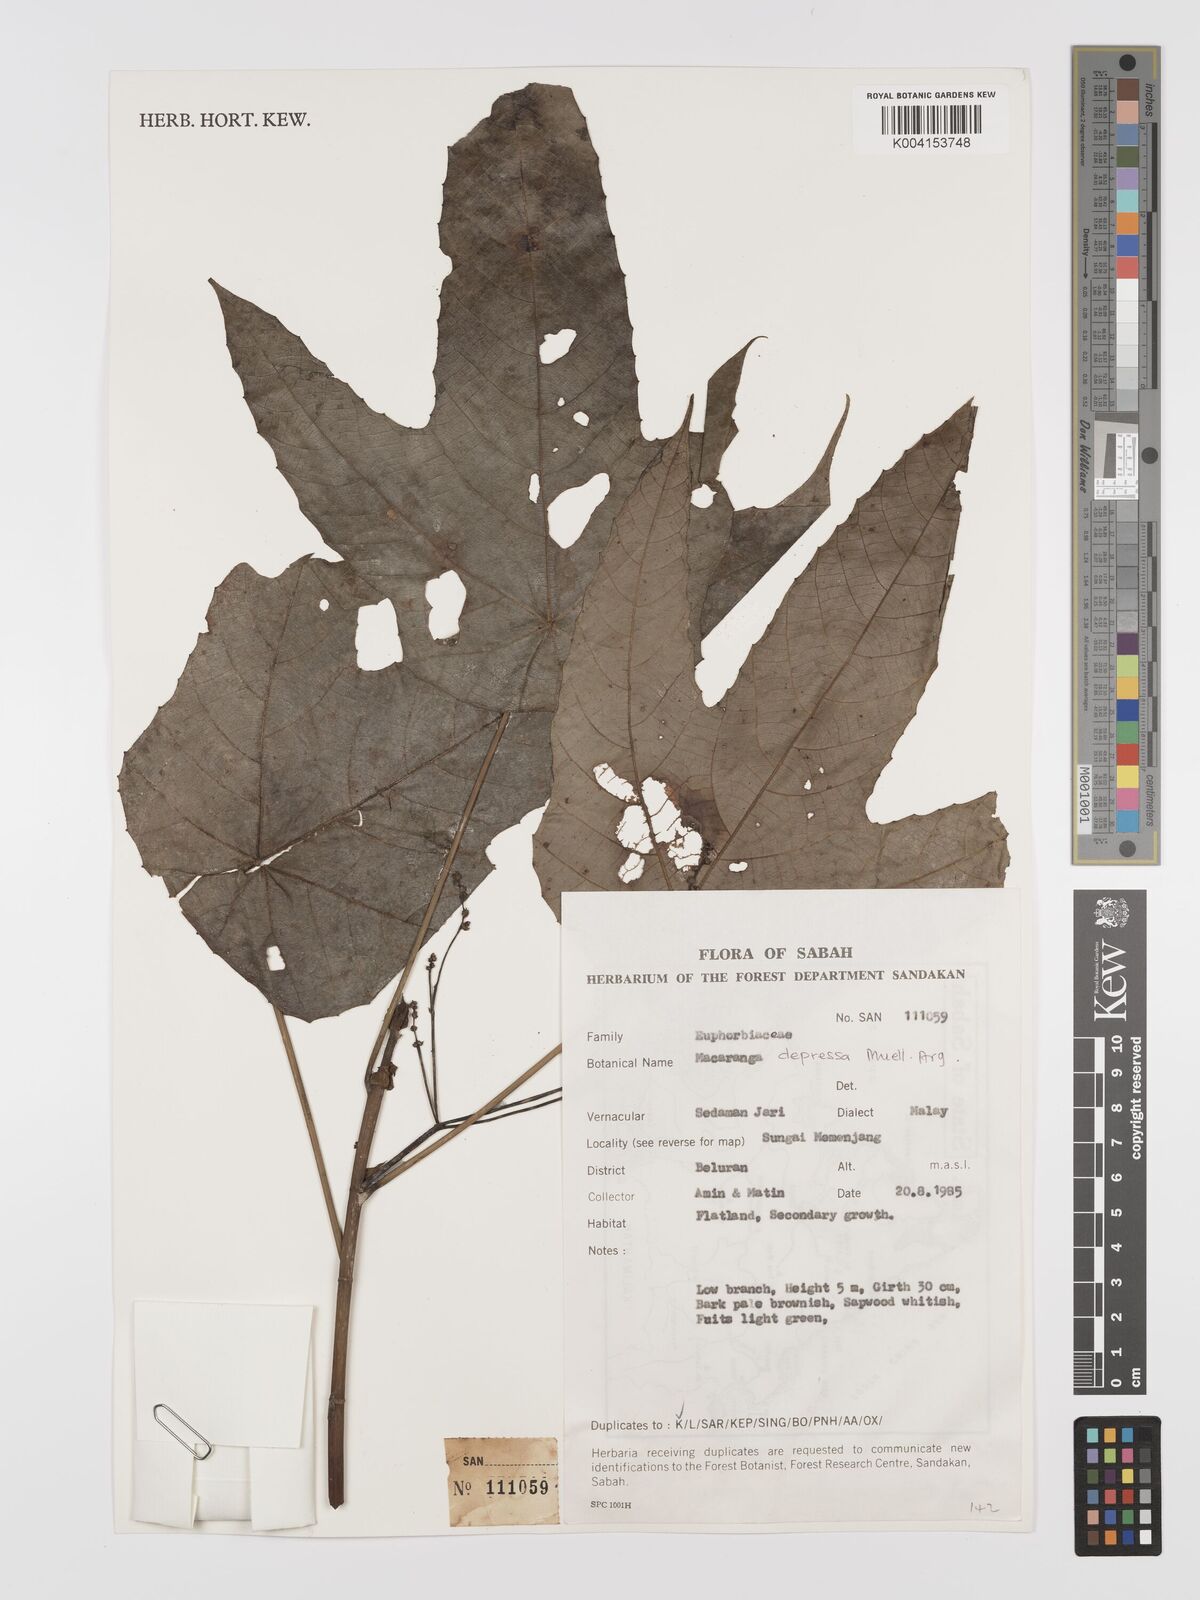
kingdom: Plantae
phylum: Tracheophyta
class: Magnoliopsida
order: Malpighiales
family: Euphorbiaceae
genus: Macaranga
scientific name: Macaranga depressa
